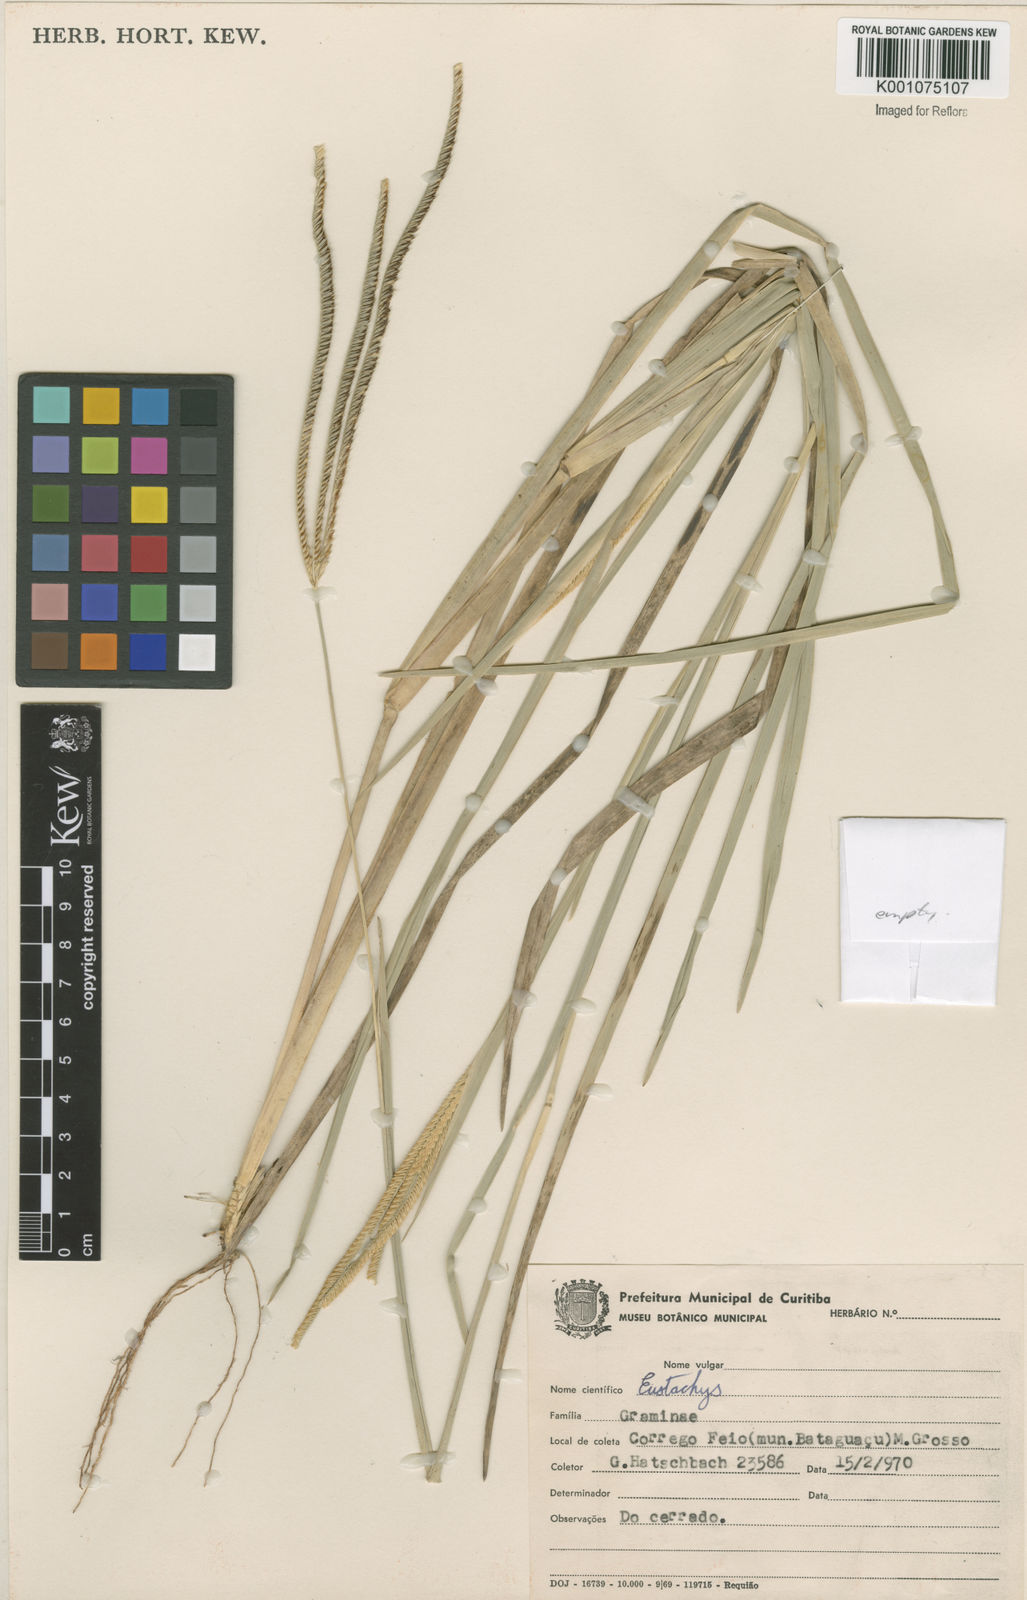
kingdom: Plantae
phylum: Tracheophyta
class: Liliopsida
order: Poales
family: Poaceae
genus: Eustachys
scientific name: Eustachys
